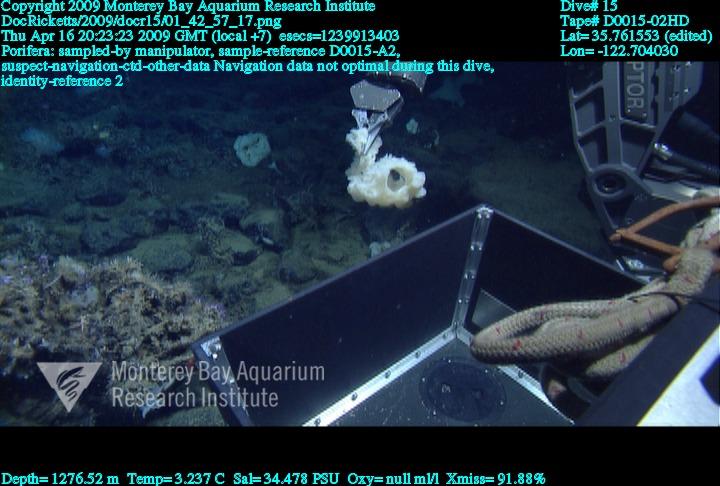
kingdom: Animalia
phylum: Porifera
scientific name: Porifera
